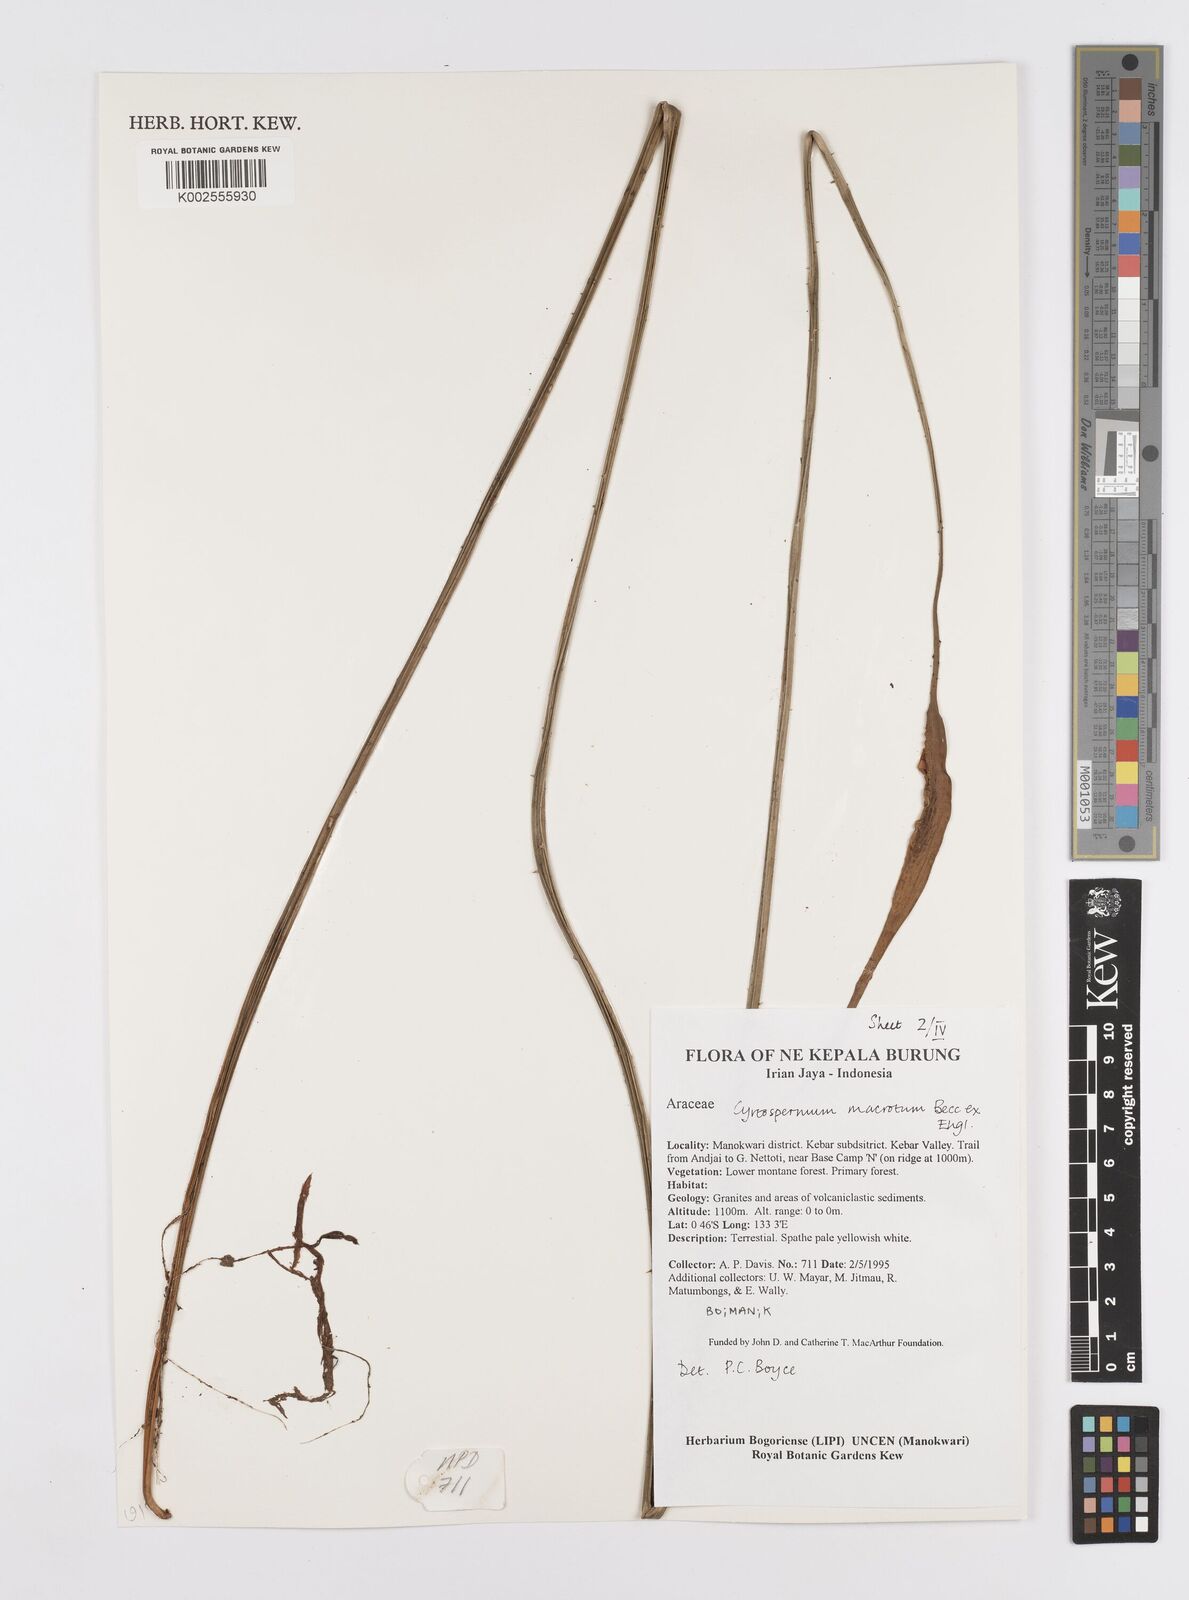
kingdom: Plantae
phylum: Tracheophyta
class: Liliopsida
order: Alismatales
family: Araceae
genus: Cyrtosperma
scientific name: Cyrtosperma macrotum
